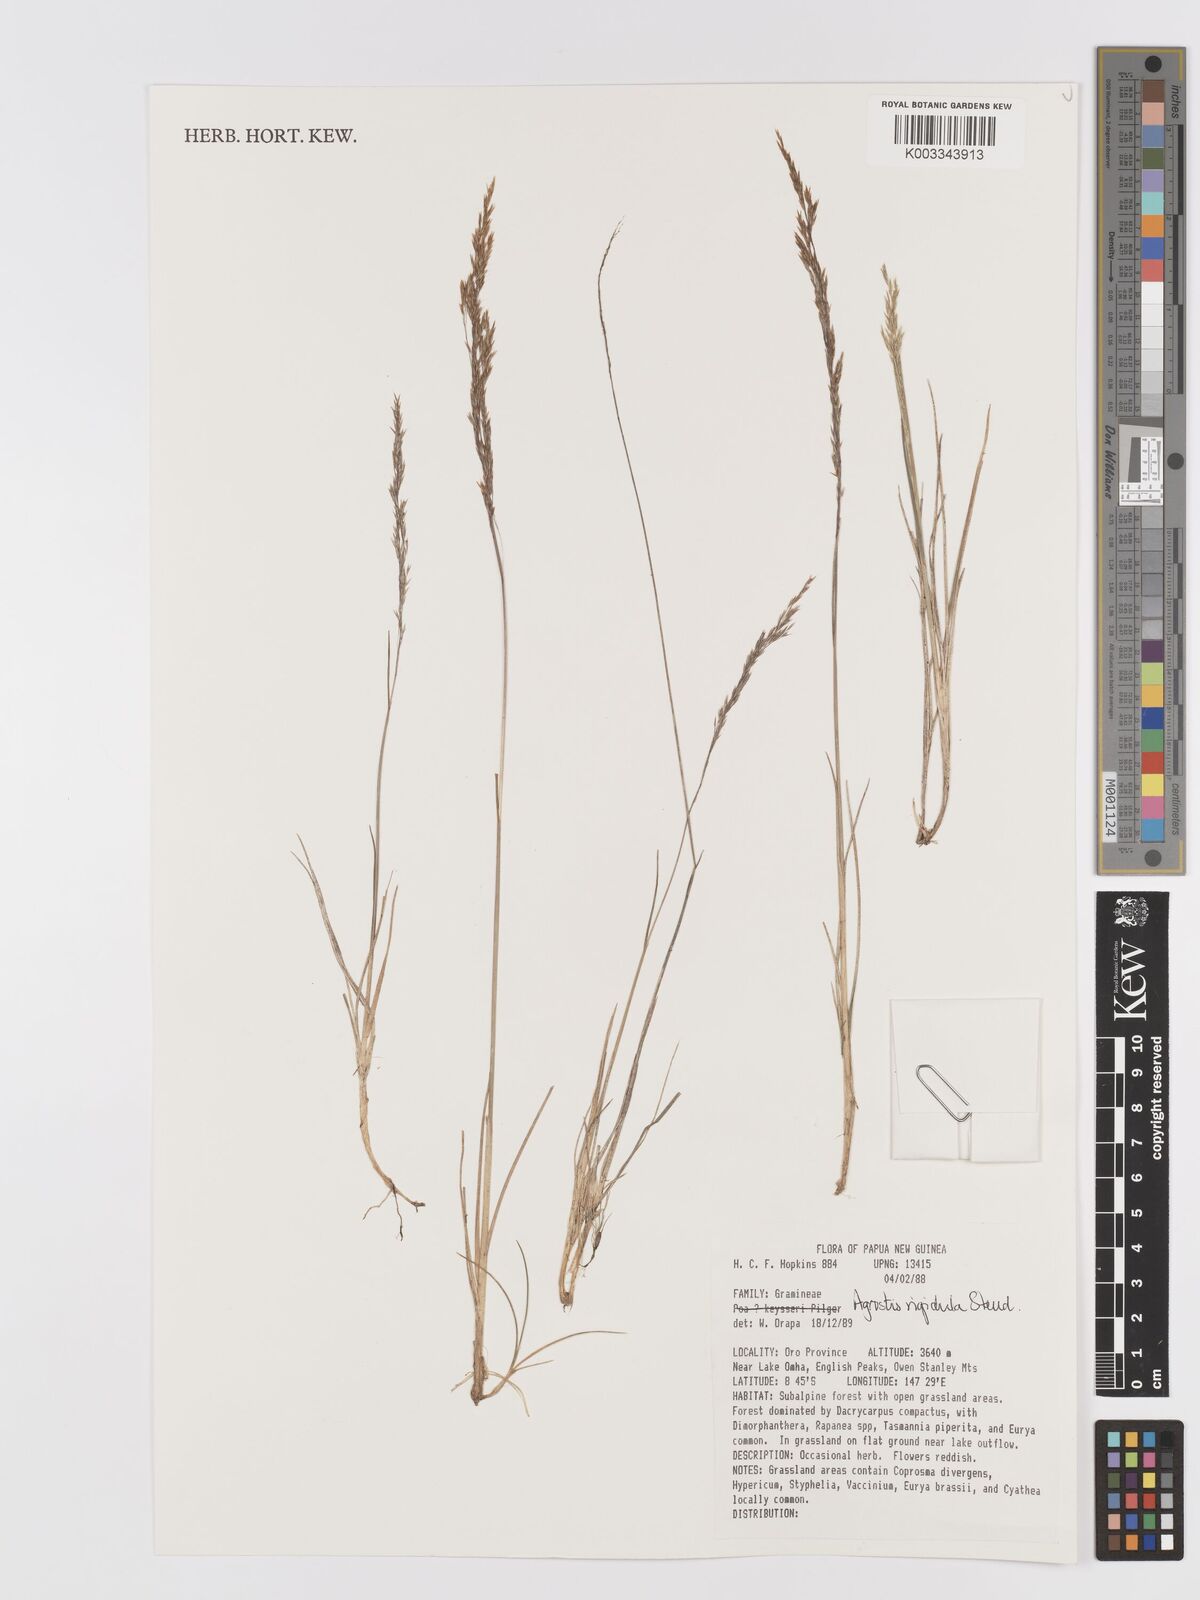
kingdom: Plantae
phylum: Tracheophyta
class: Liliopsida
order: Poales
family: Poaceae
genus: Agrostis
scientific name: Agrostis infirma
